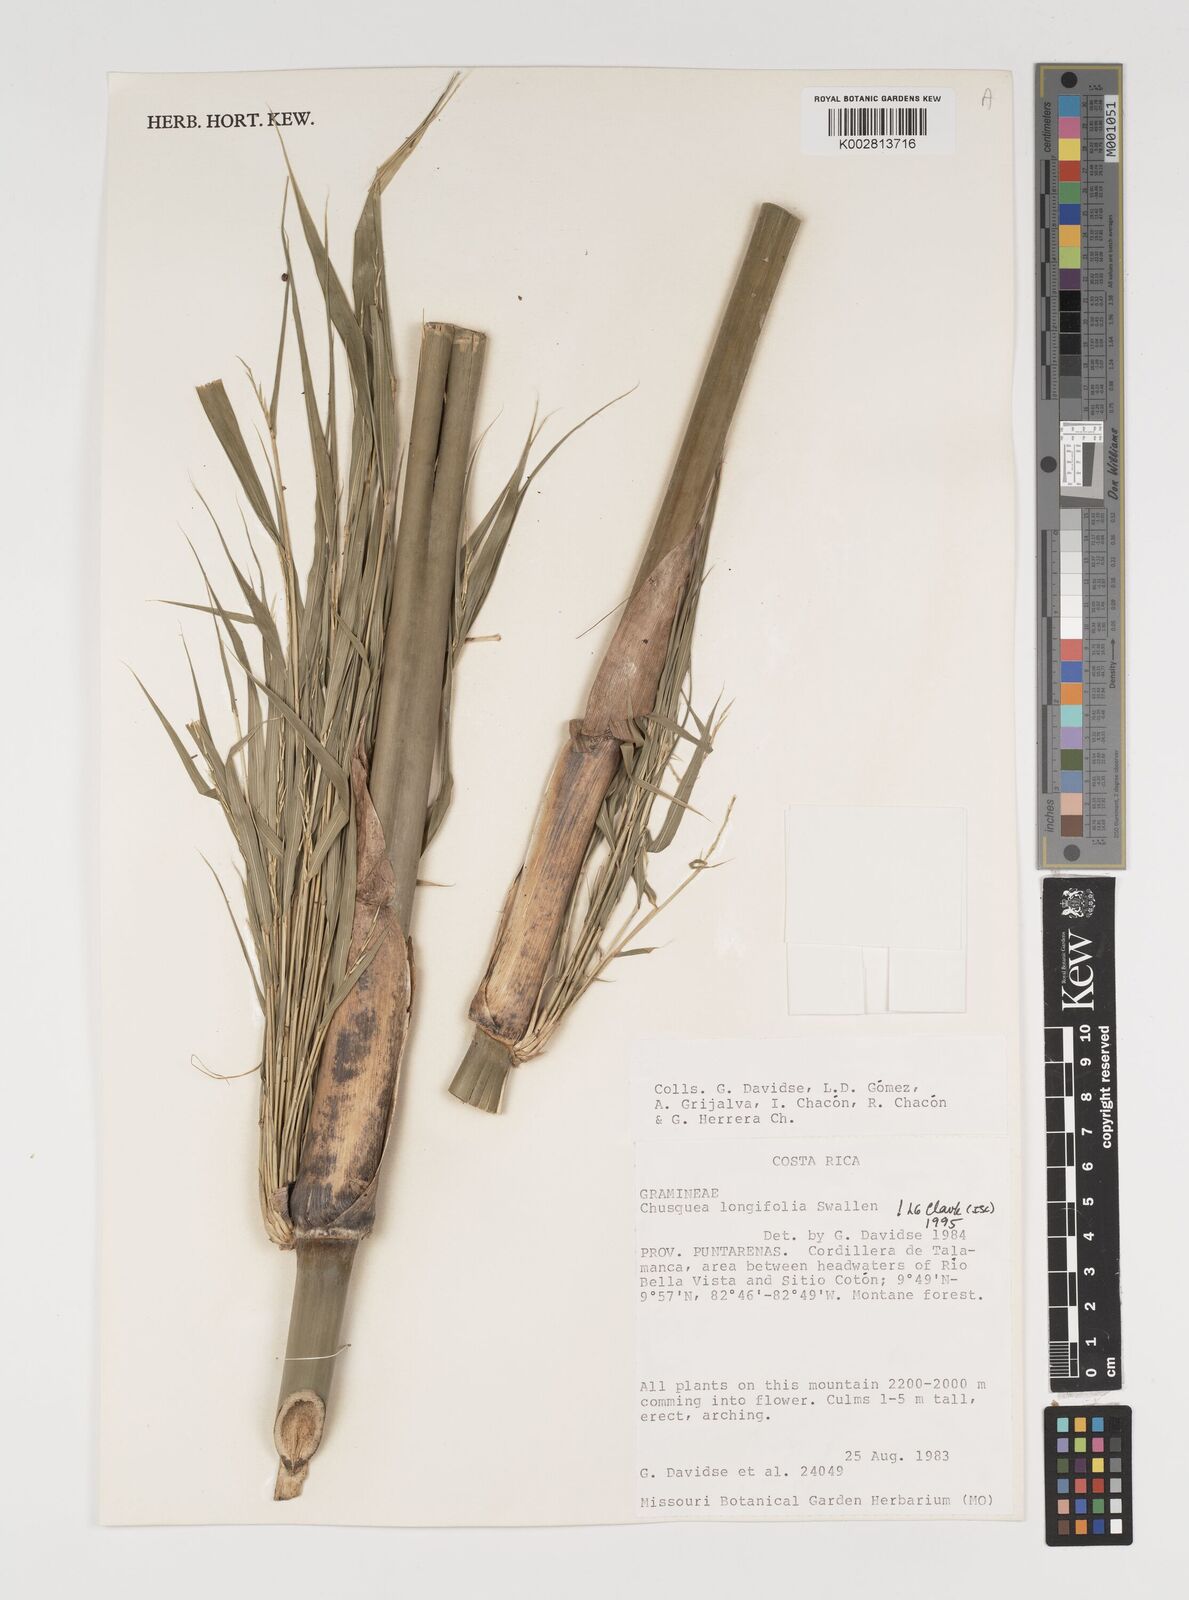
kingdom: Plantae
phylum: Tracheophyta
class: Liliopsida
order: Poales
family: Poaceae
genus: Chusquea
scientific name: Chusquea longifolia
